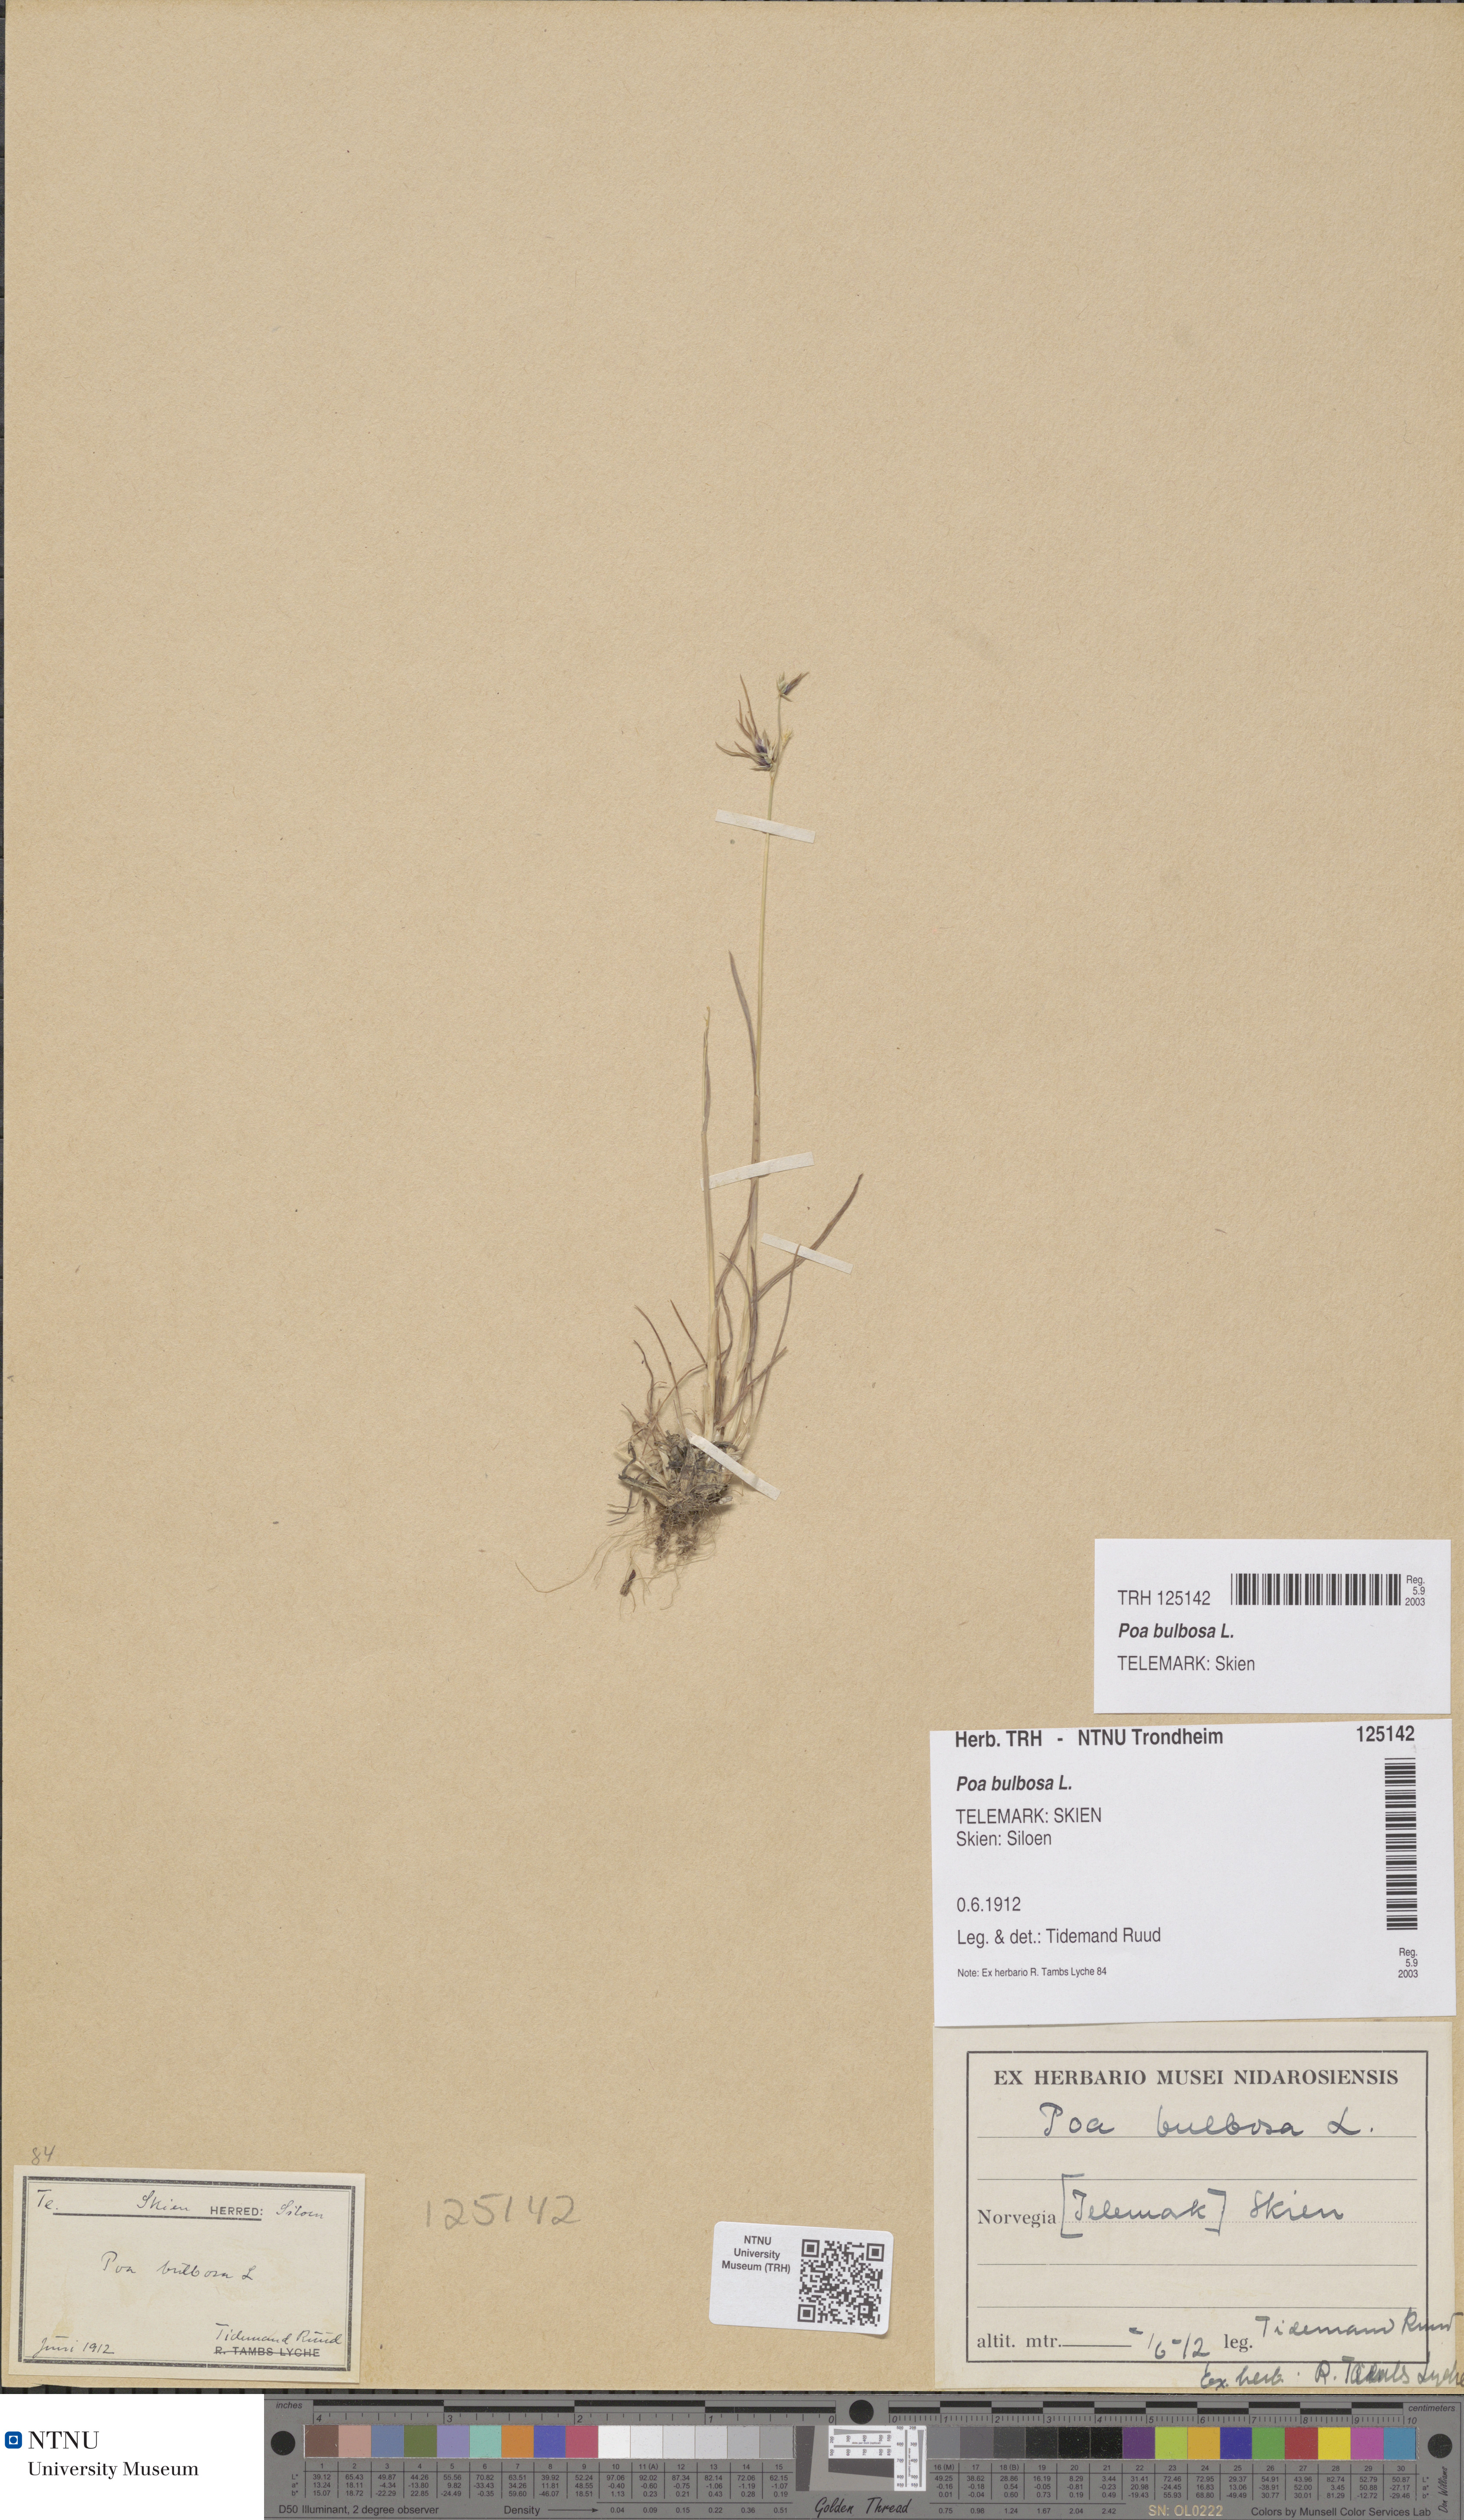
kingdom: Plantae
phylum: Tracheophyta
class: Liliopsida
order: Poales
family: Poaceae
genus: Poa
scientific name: Poa bulbosa
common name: Bulbous bluegrass
